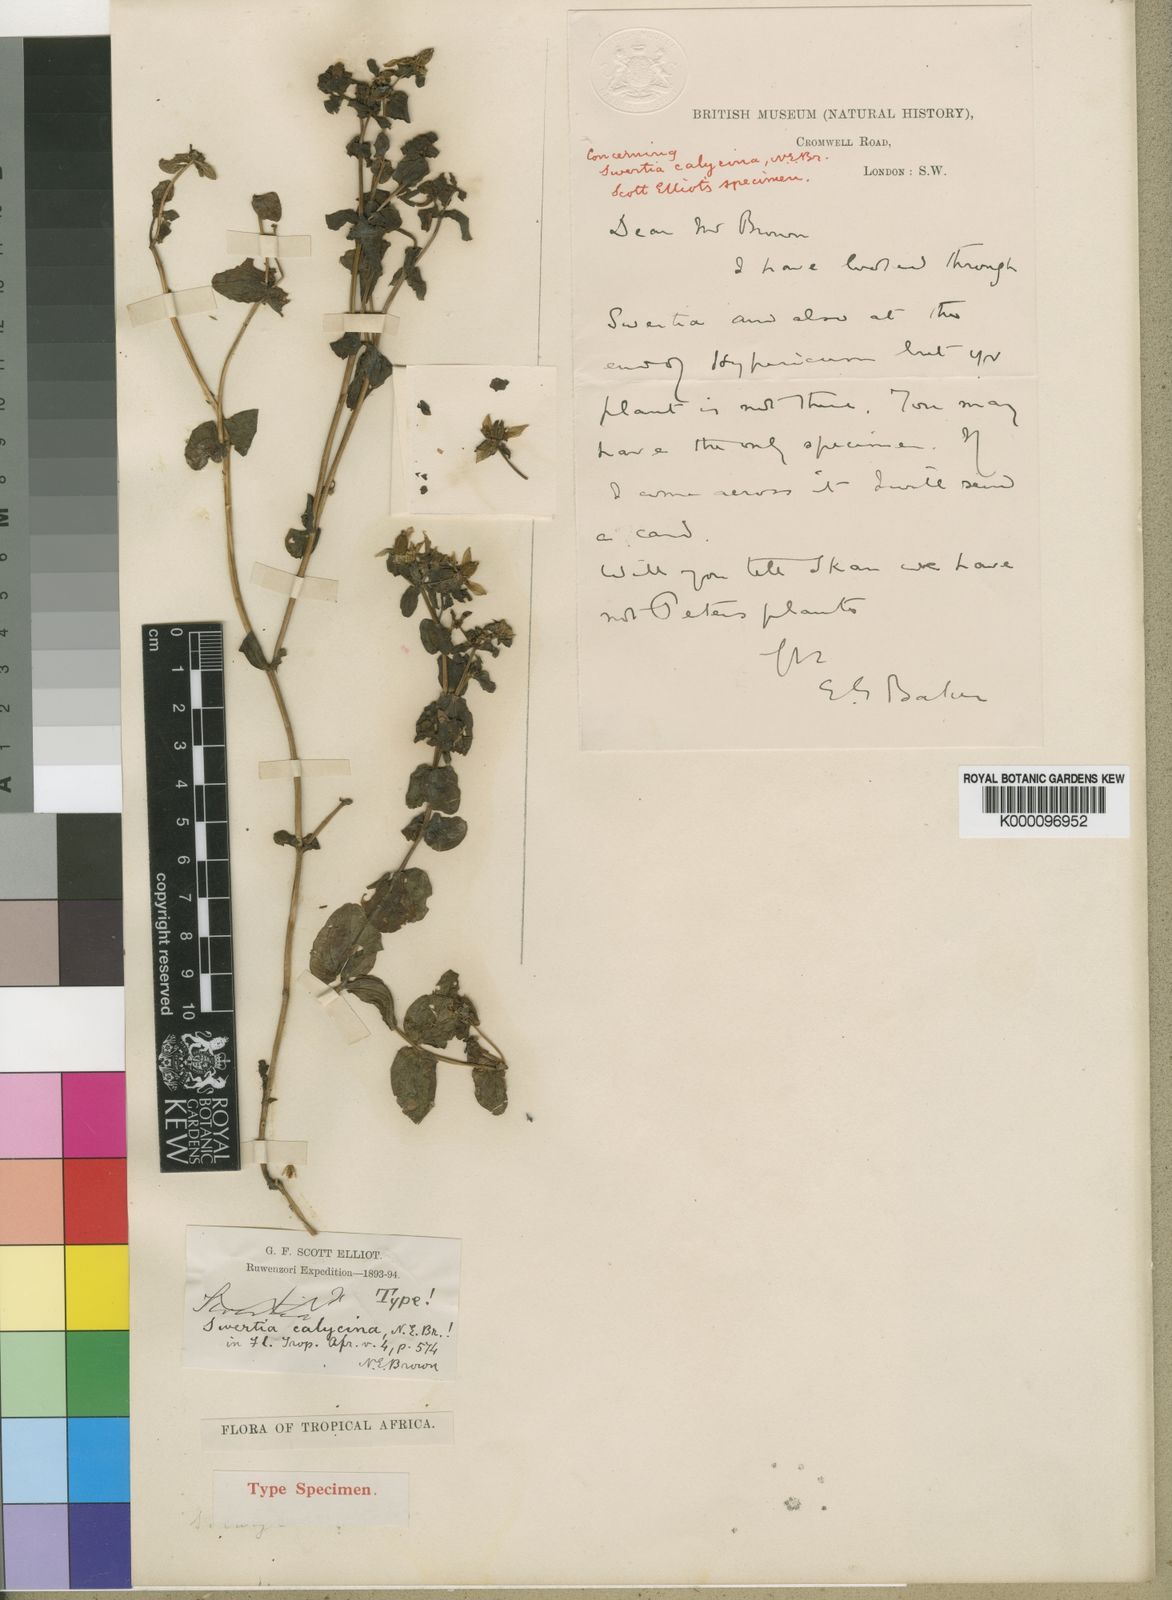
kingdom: Plantae
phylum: Tracheophyta
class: Magnoliopsida
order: Gentianales
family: Gentianaceae
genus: Swertia
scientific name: Swertia brownii
